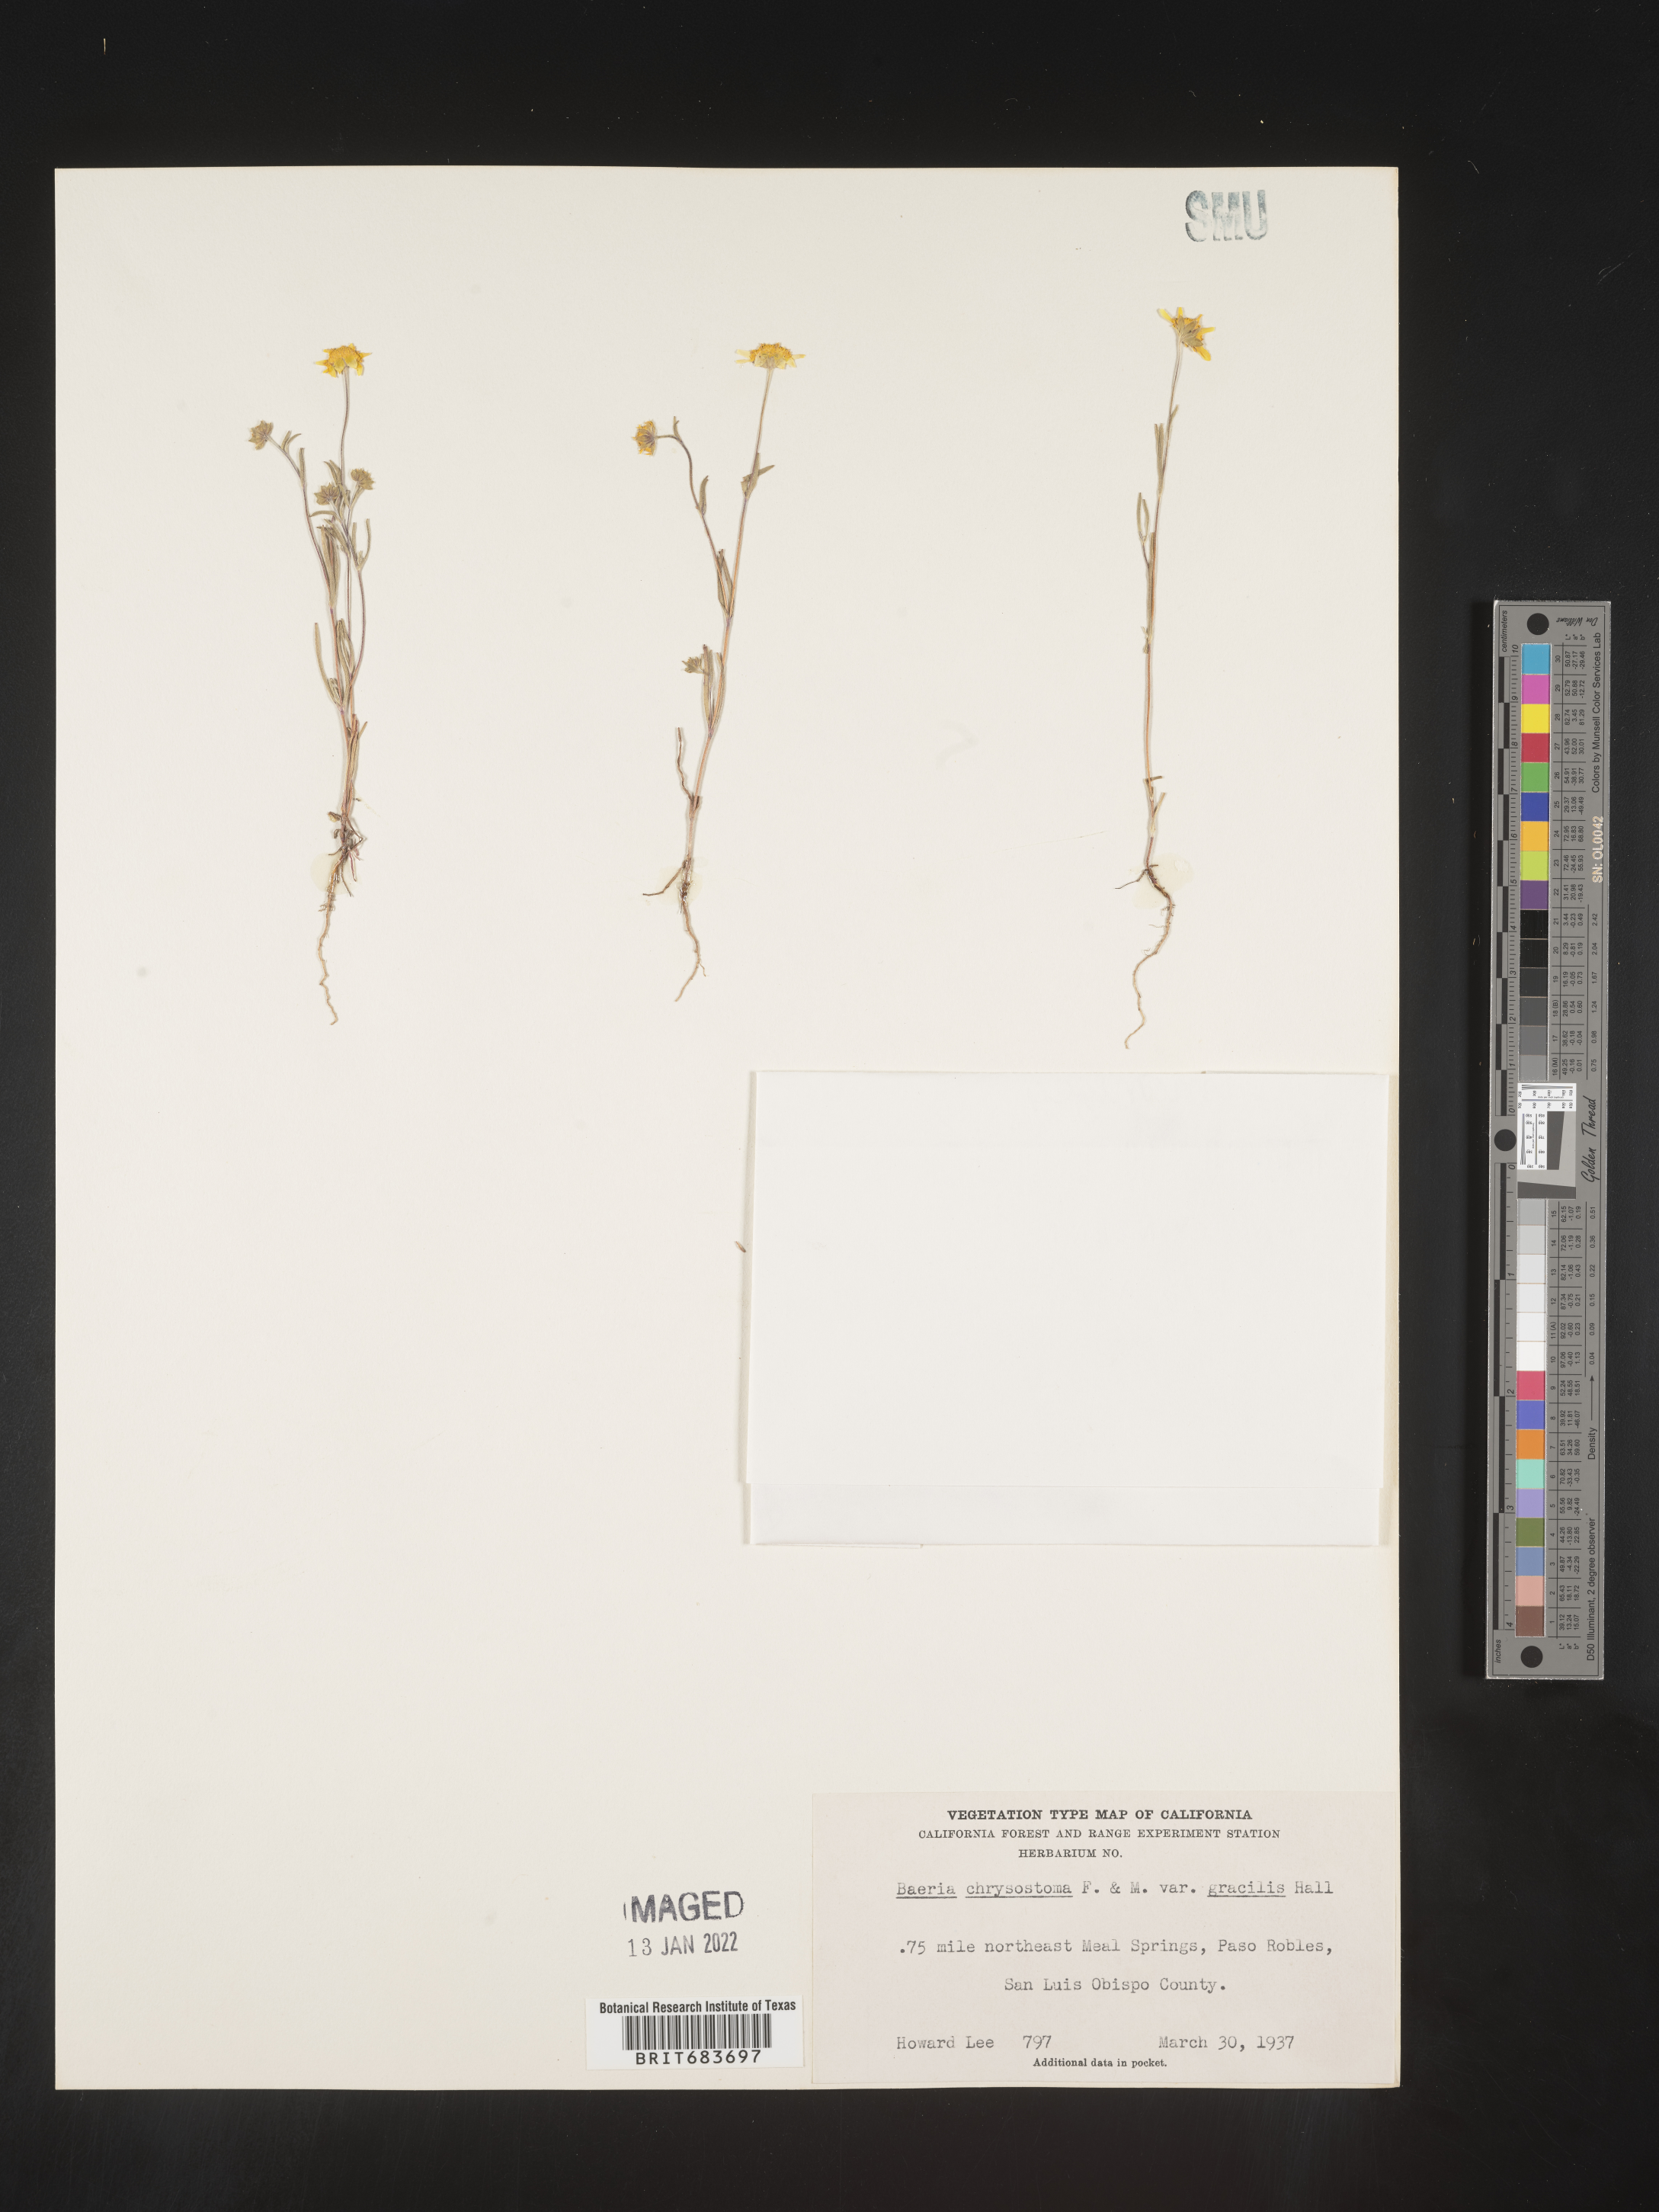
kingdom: Plantae
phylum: Tracheophyta
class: Magnoliopsida
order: Asterales
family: Asteraceae
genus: Lasthenia
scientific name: Lasthenia
